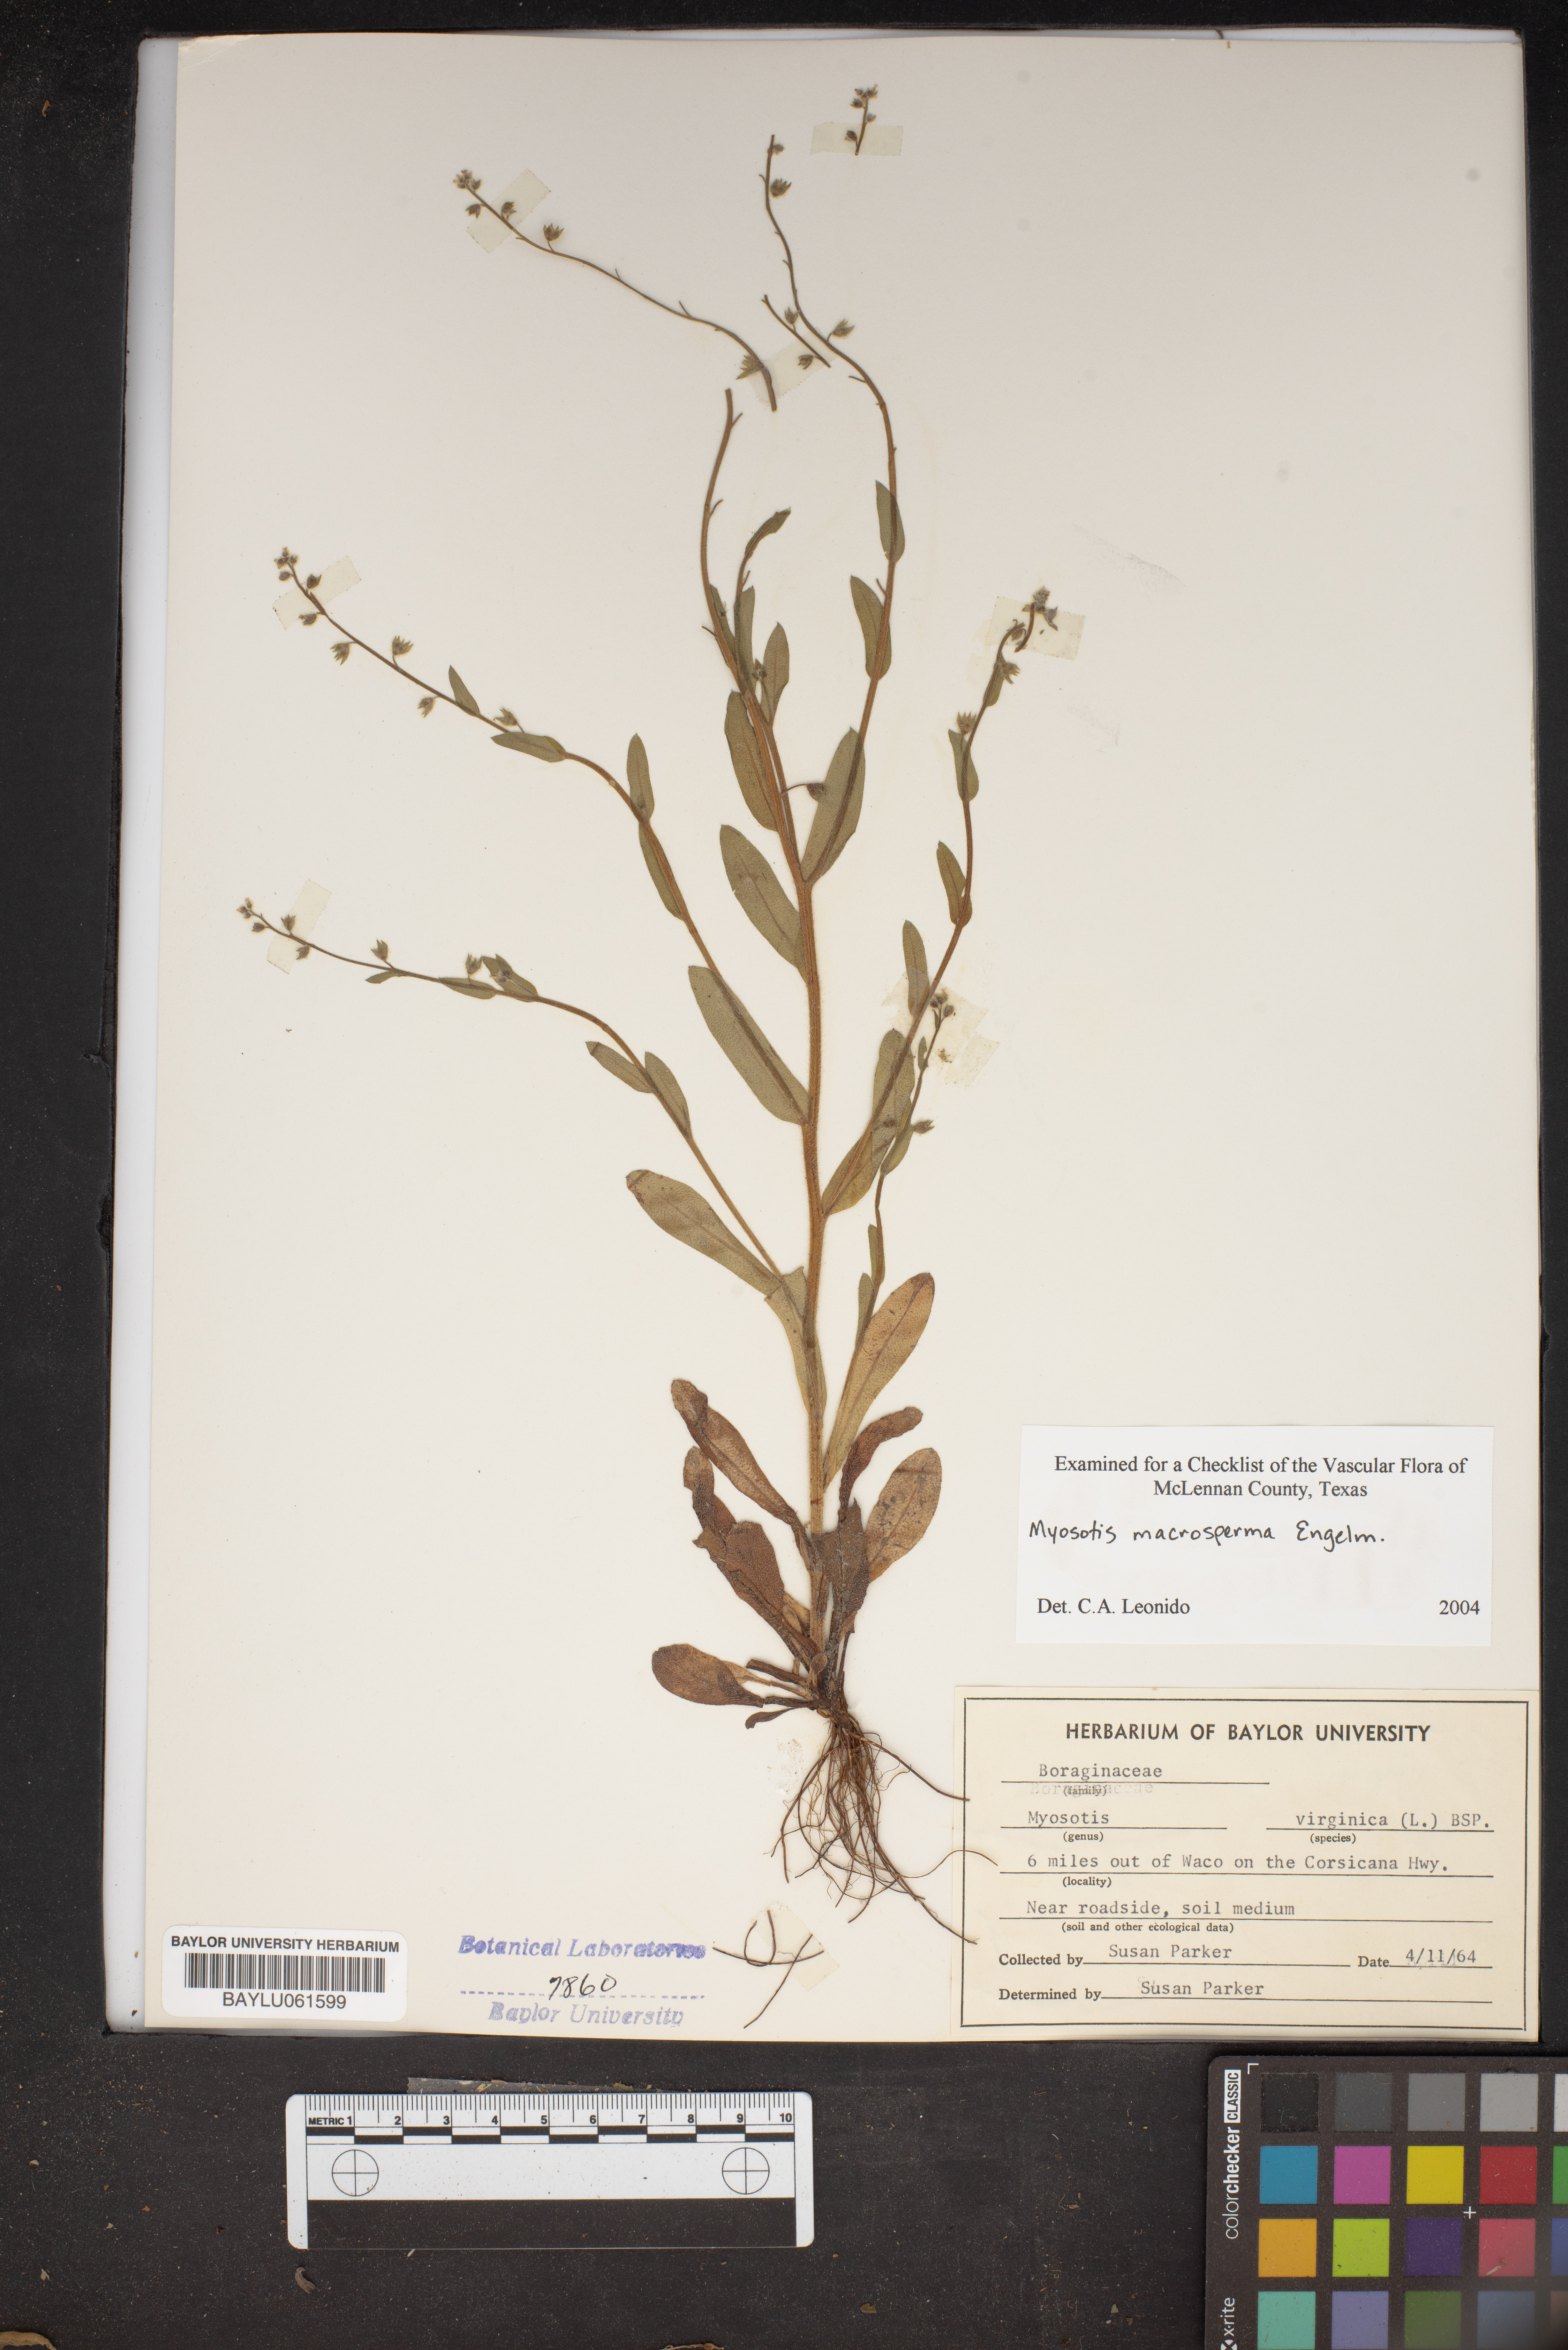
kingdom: Plantae
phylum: Tracheophyta
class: Magnoliopsida
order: Boraginales
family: Boraginaceae
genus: Myosotis
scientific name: Myosotis virginica
